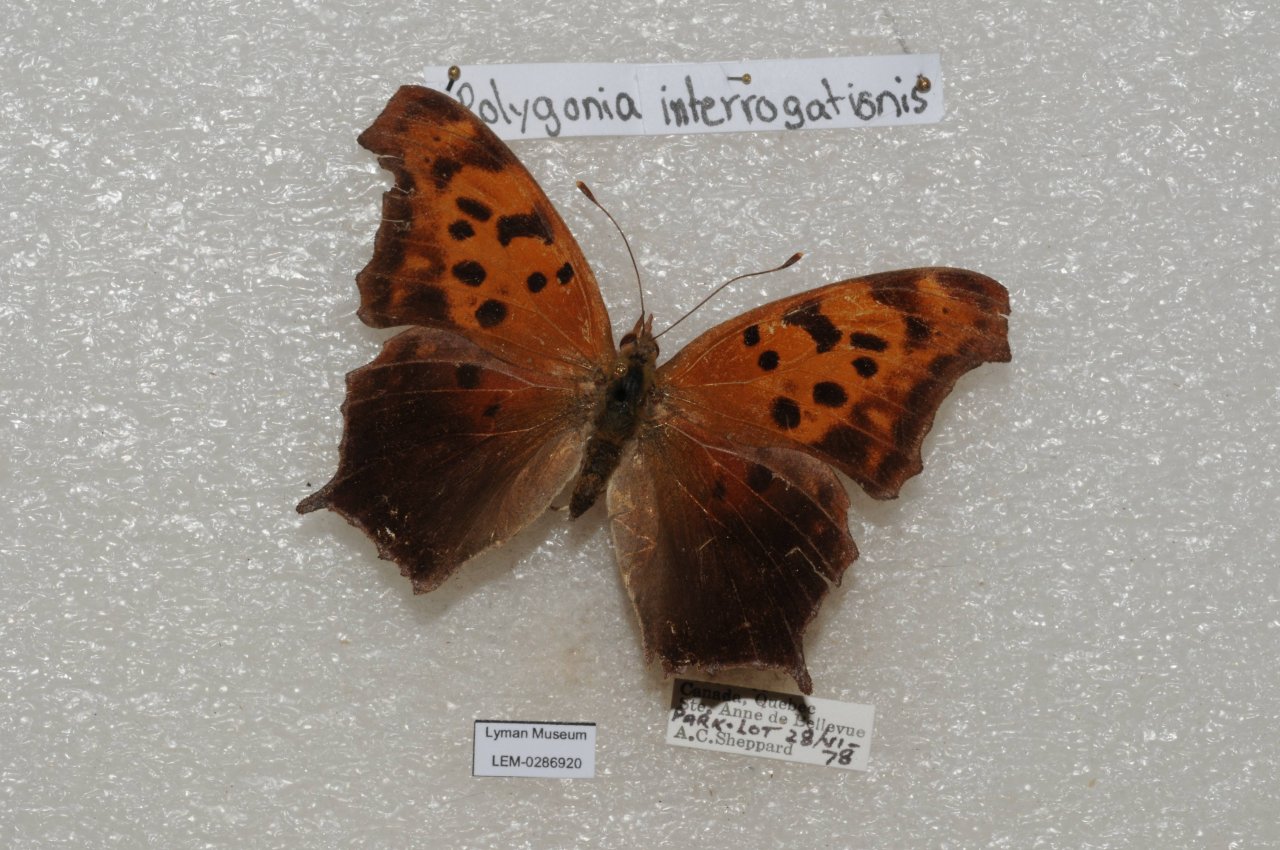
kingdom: Animalia
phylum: Arthropoda
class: Insecta
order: Lepidoptera
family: Nymphalidae
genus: Polygonia
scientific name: Polygonia interrogationis
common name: Question Mark
